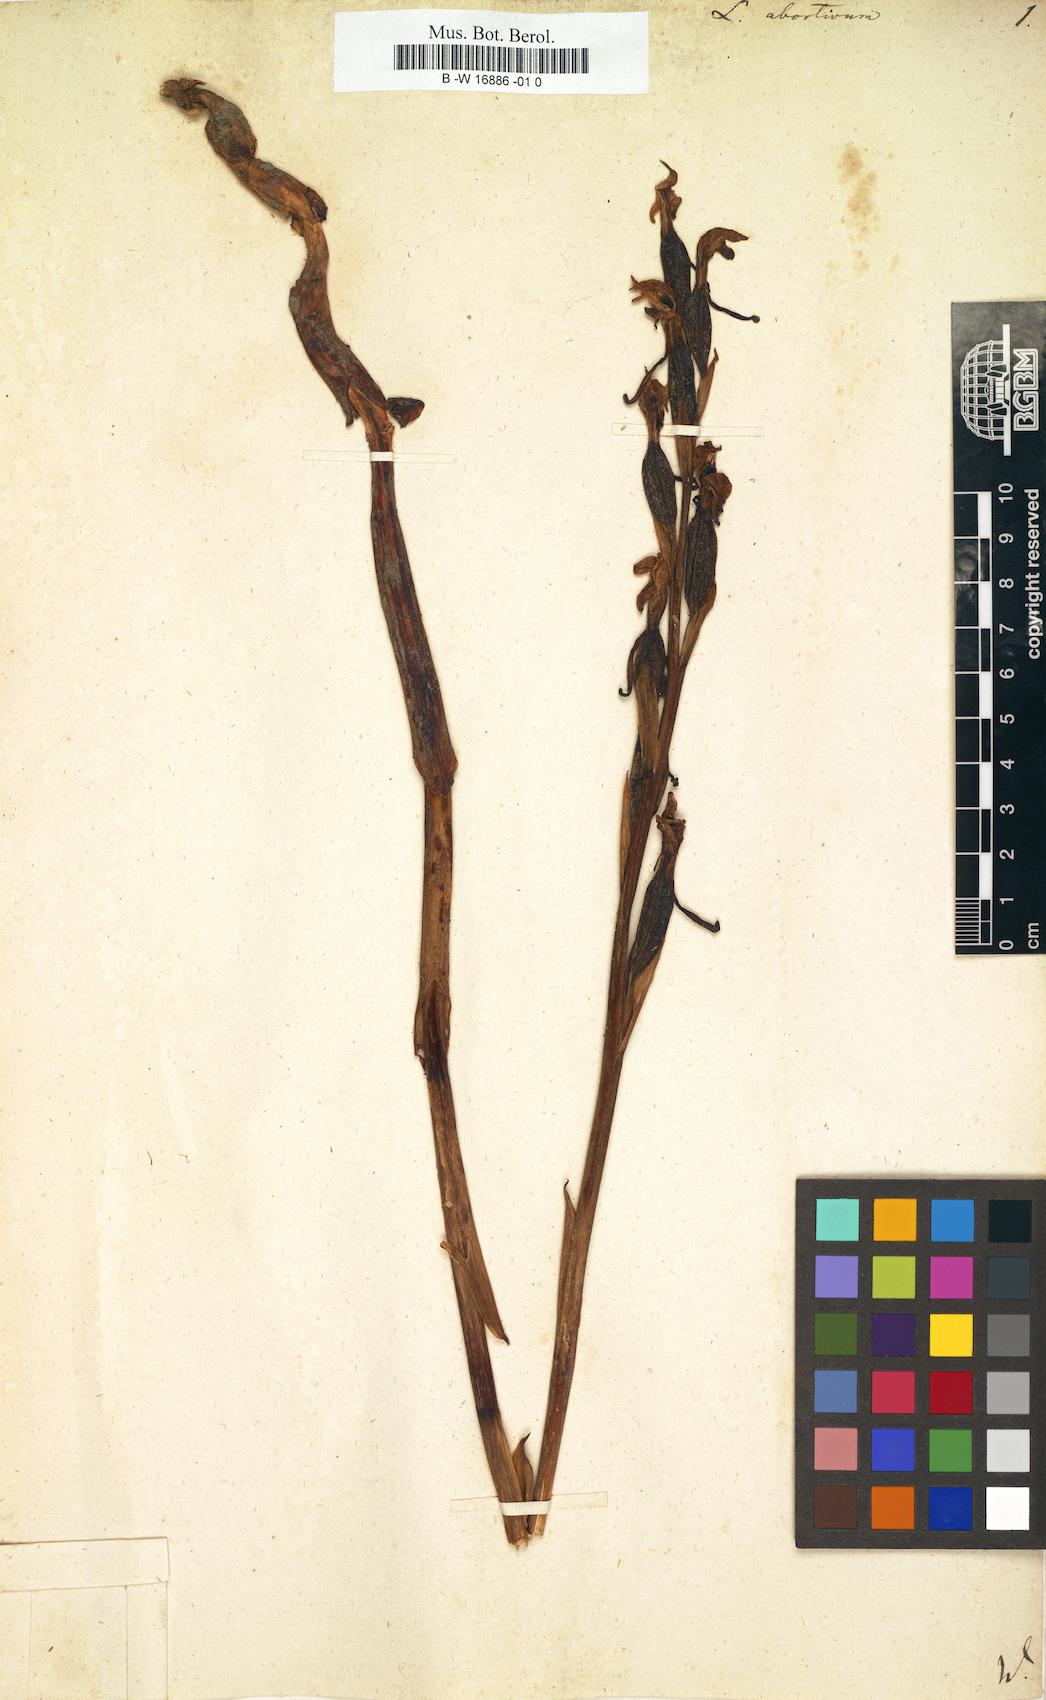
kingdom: Plantae
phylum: Tracheophyta
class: Liliopsida
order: Asparagales
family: Orchidaceae
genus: Limodorum
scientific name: Limodorum abortivum
